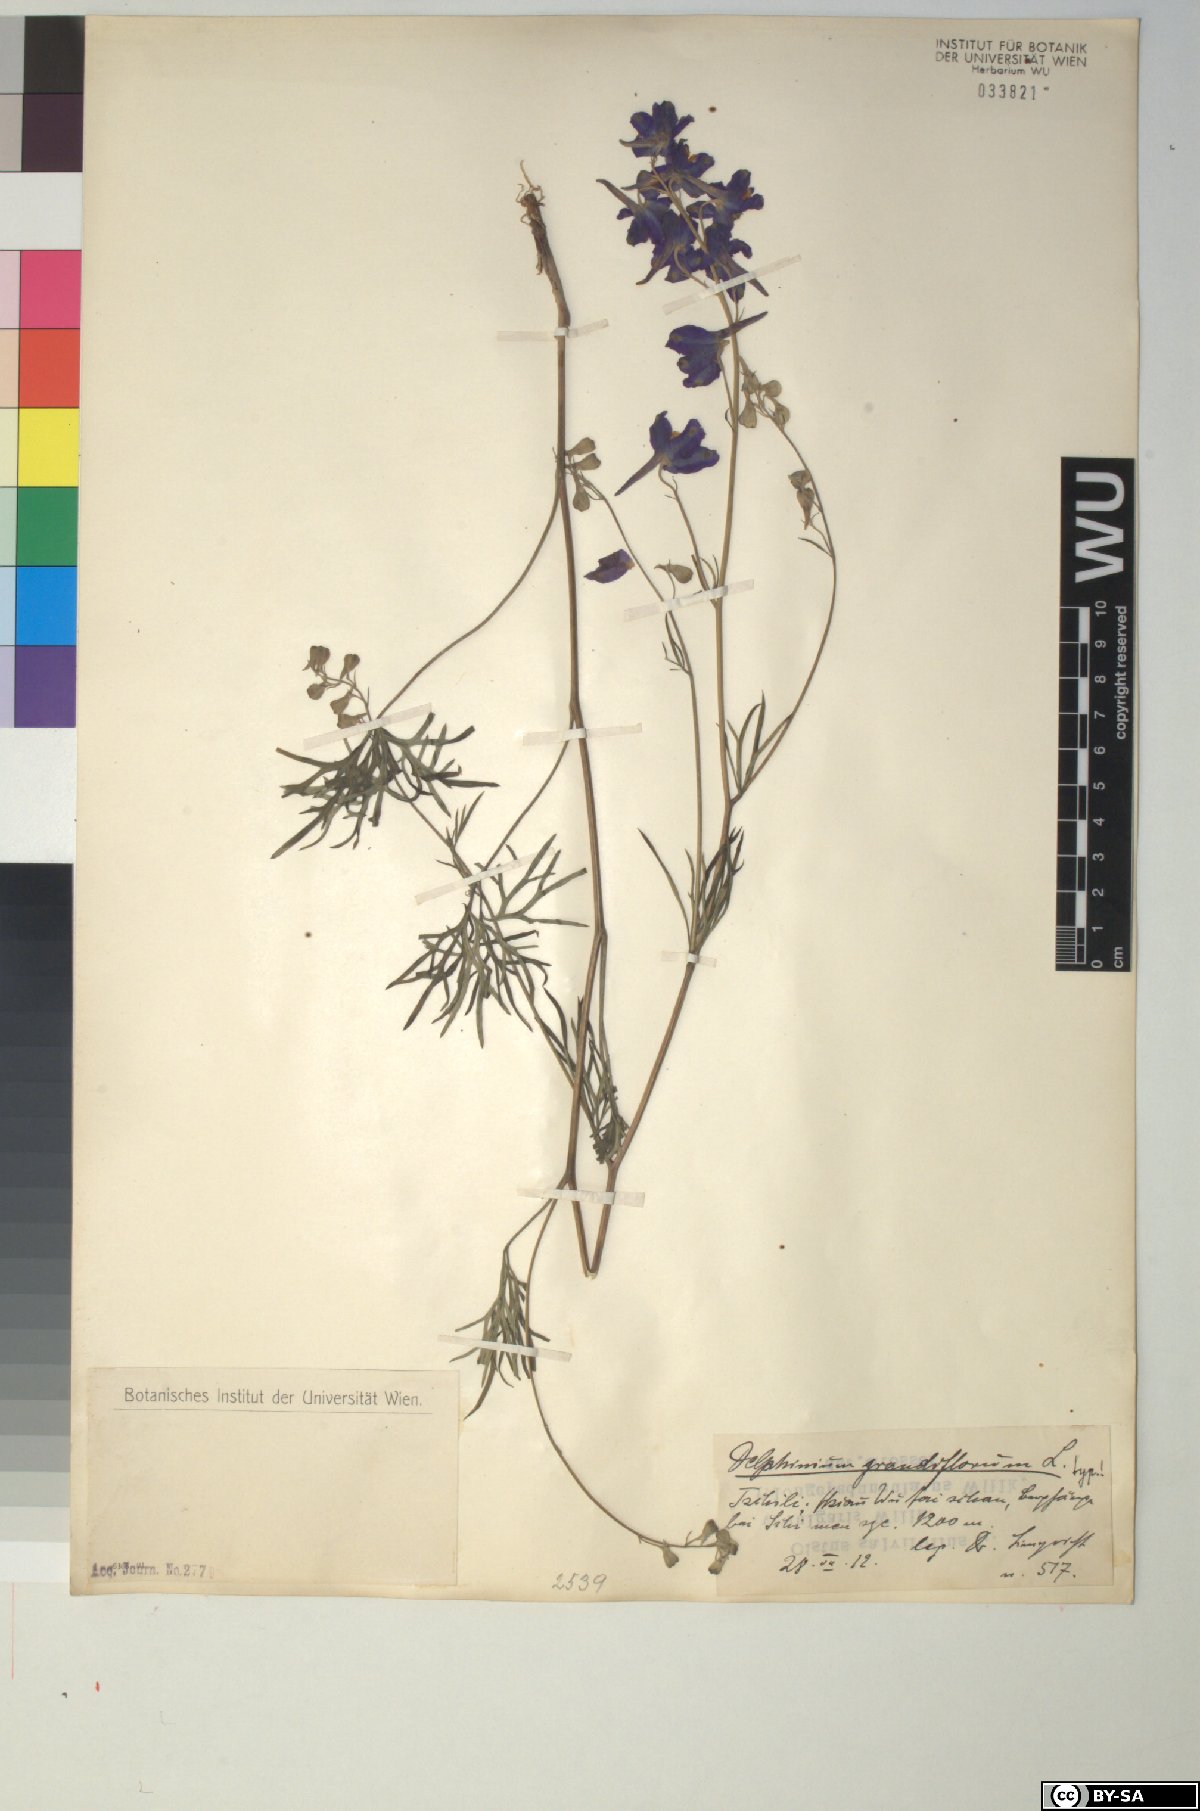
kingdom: Plantae
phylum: Tracheophyta
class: Magnoliopsida
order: Ranunculales
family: Ranunculaceae
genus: Delphinium
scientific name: Delphinium grandiflorum
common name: Siberian larkspur
